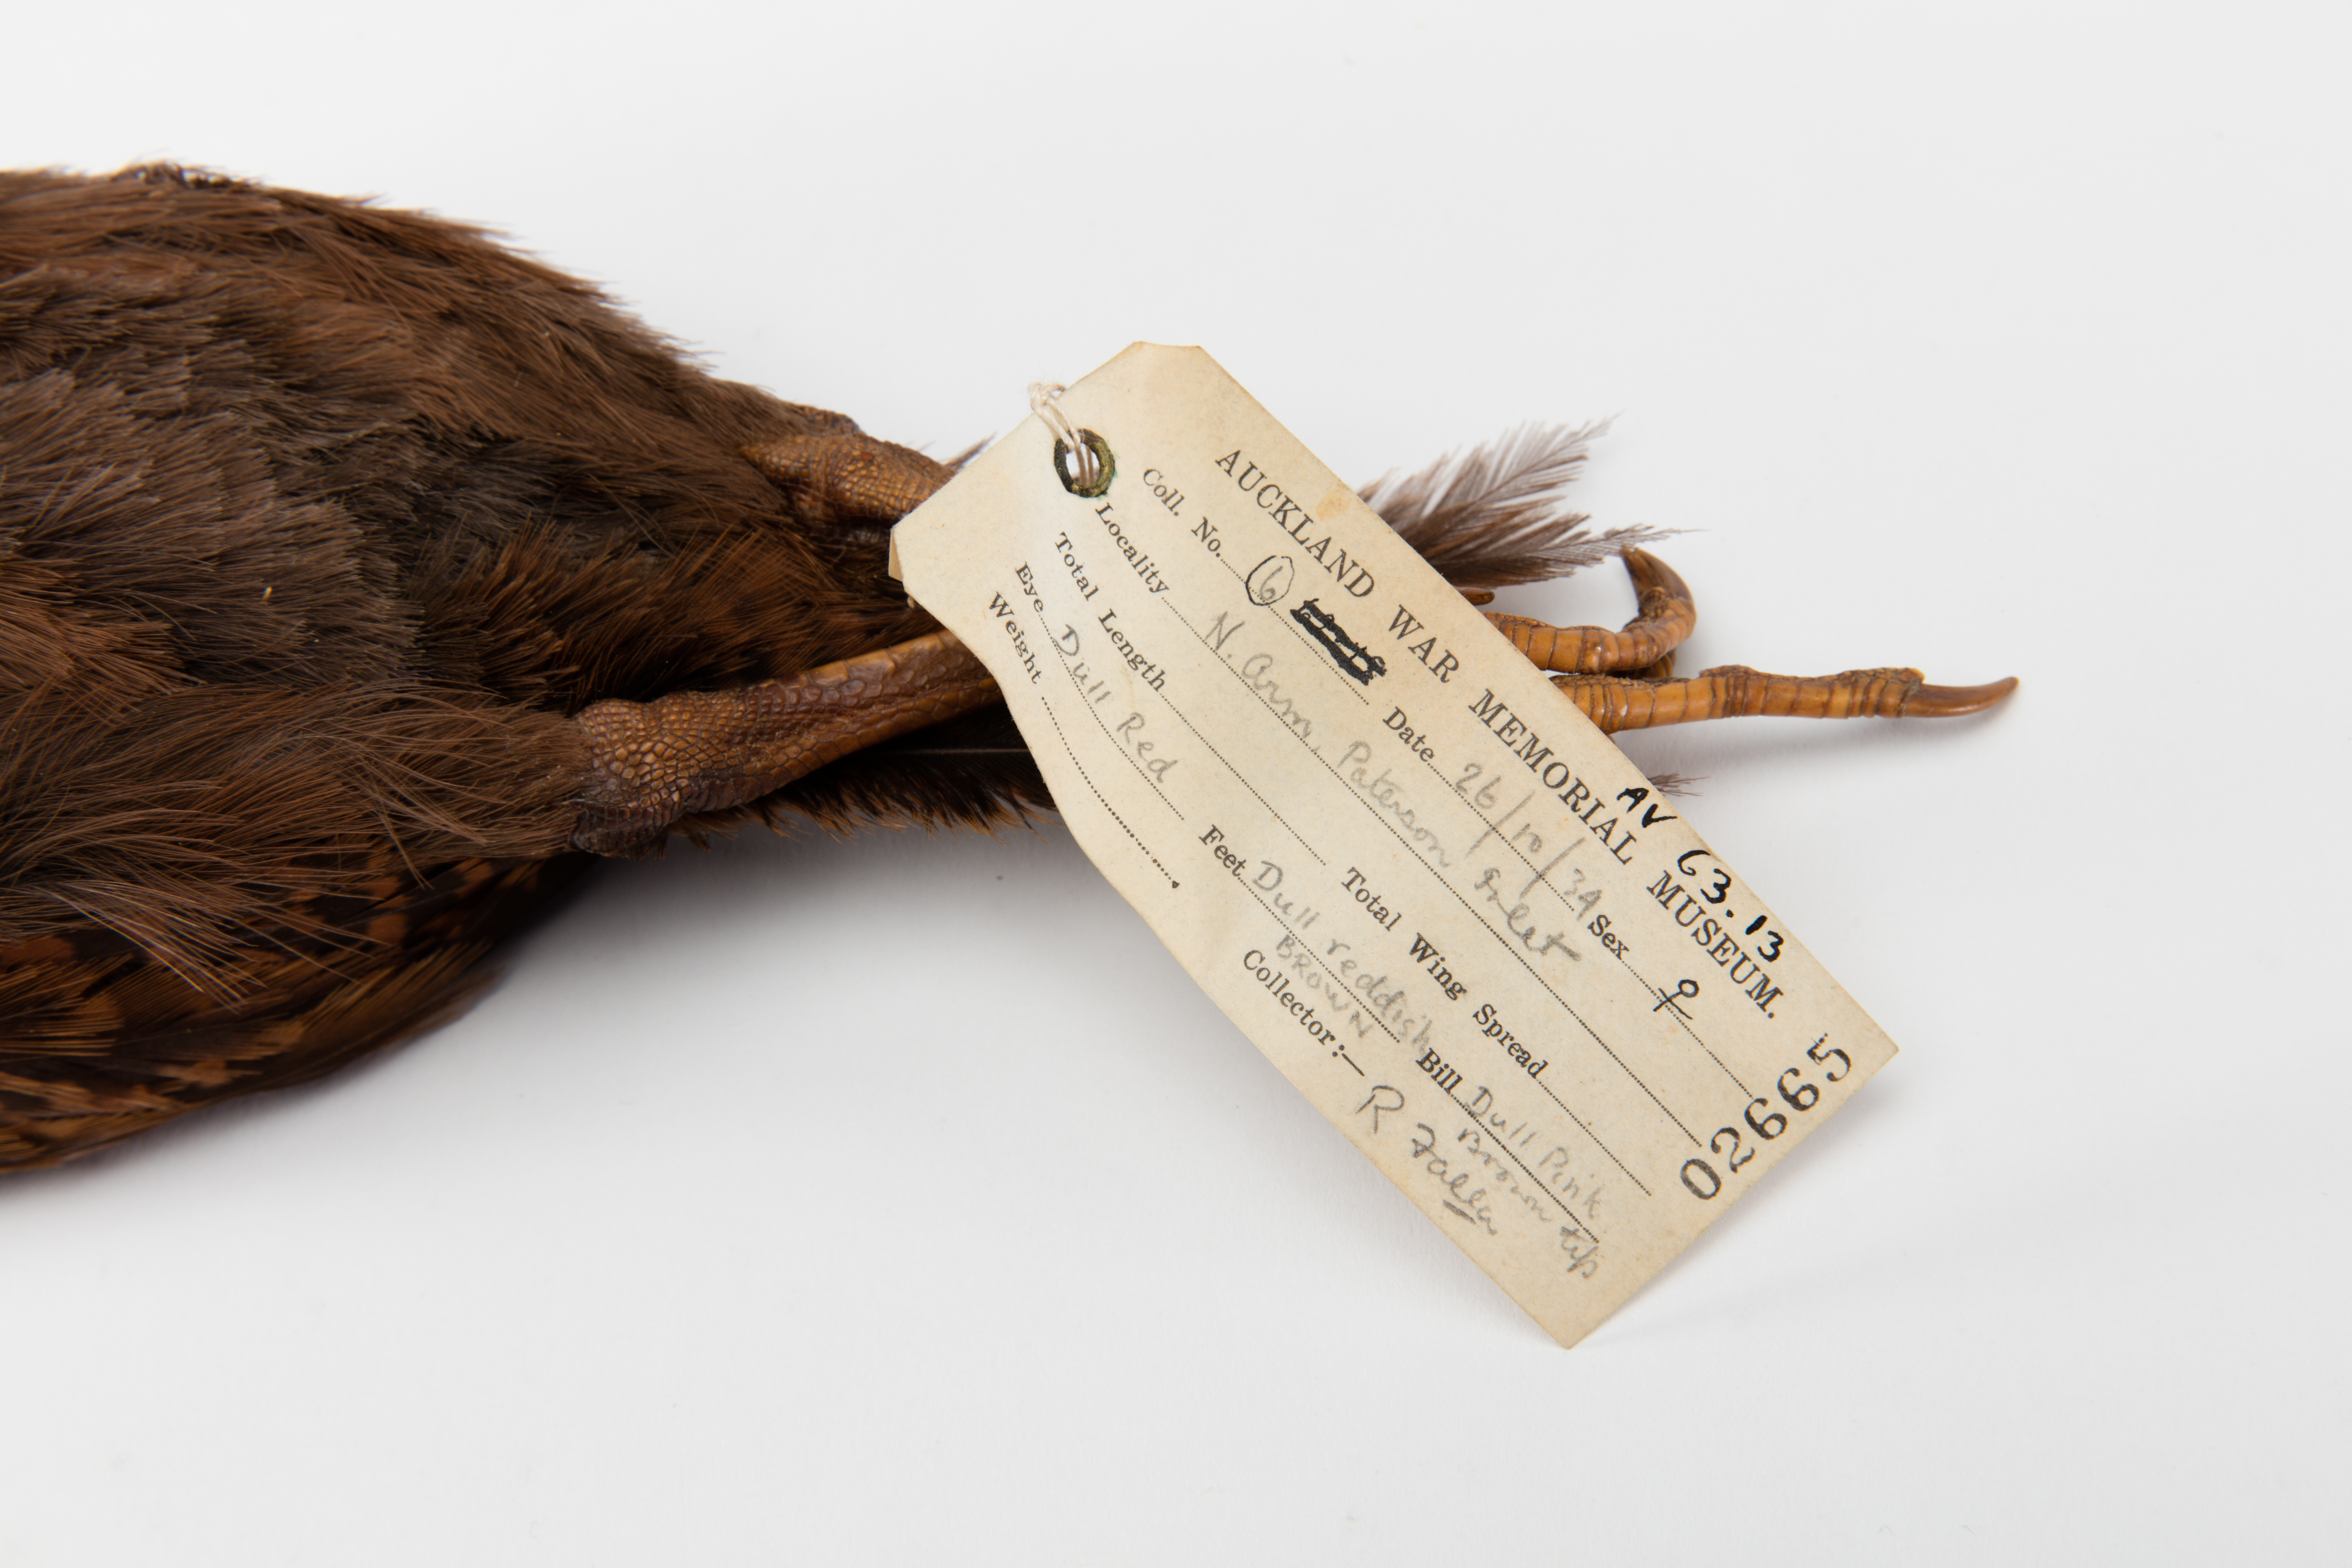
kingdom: Animalia
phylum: Chordata
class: Aves
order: Gruiformes
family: Rallidae
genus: Gallirallus
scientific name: Gallirallus australis
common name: Weka
